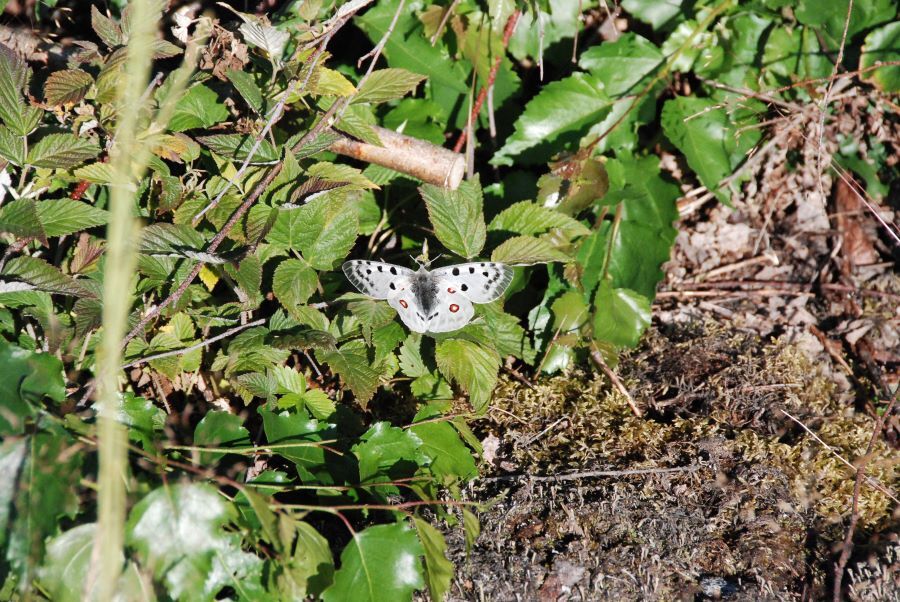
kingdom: Animalia
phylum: Arthropoda
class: Insecta
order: Lepidoptera
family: Papilionidae
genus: Parnassius
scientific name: Parnassius apollo
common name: Apollo
